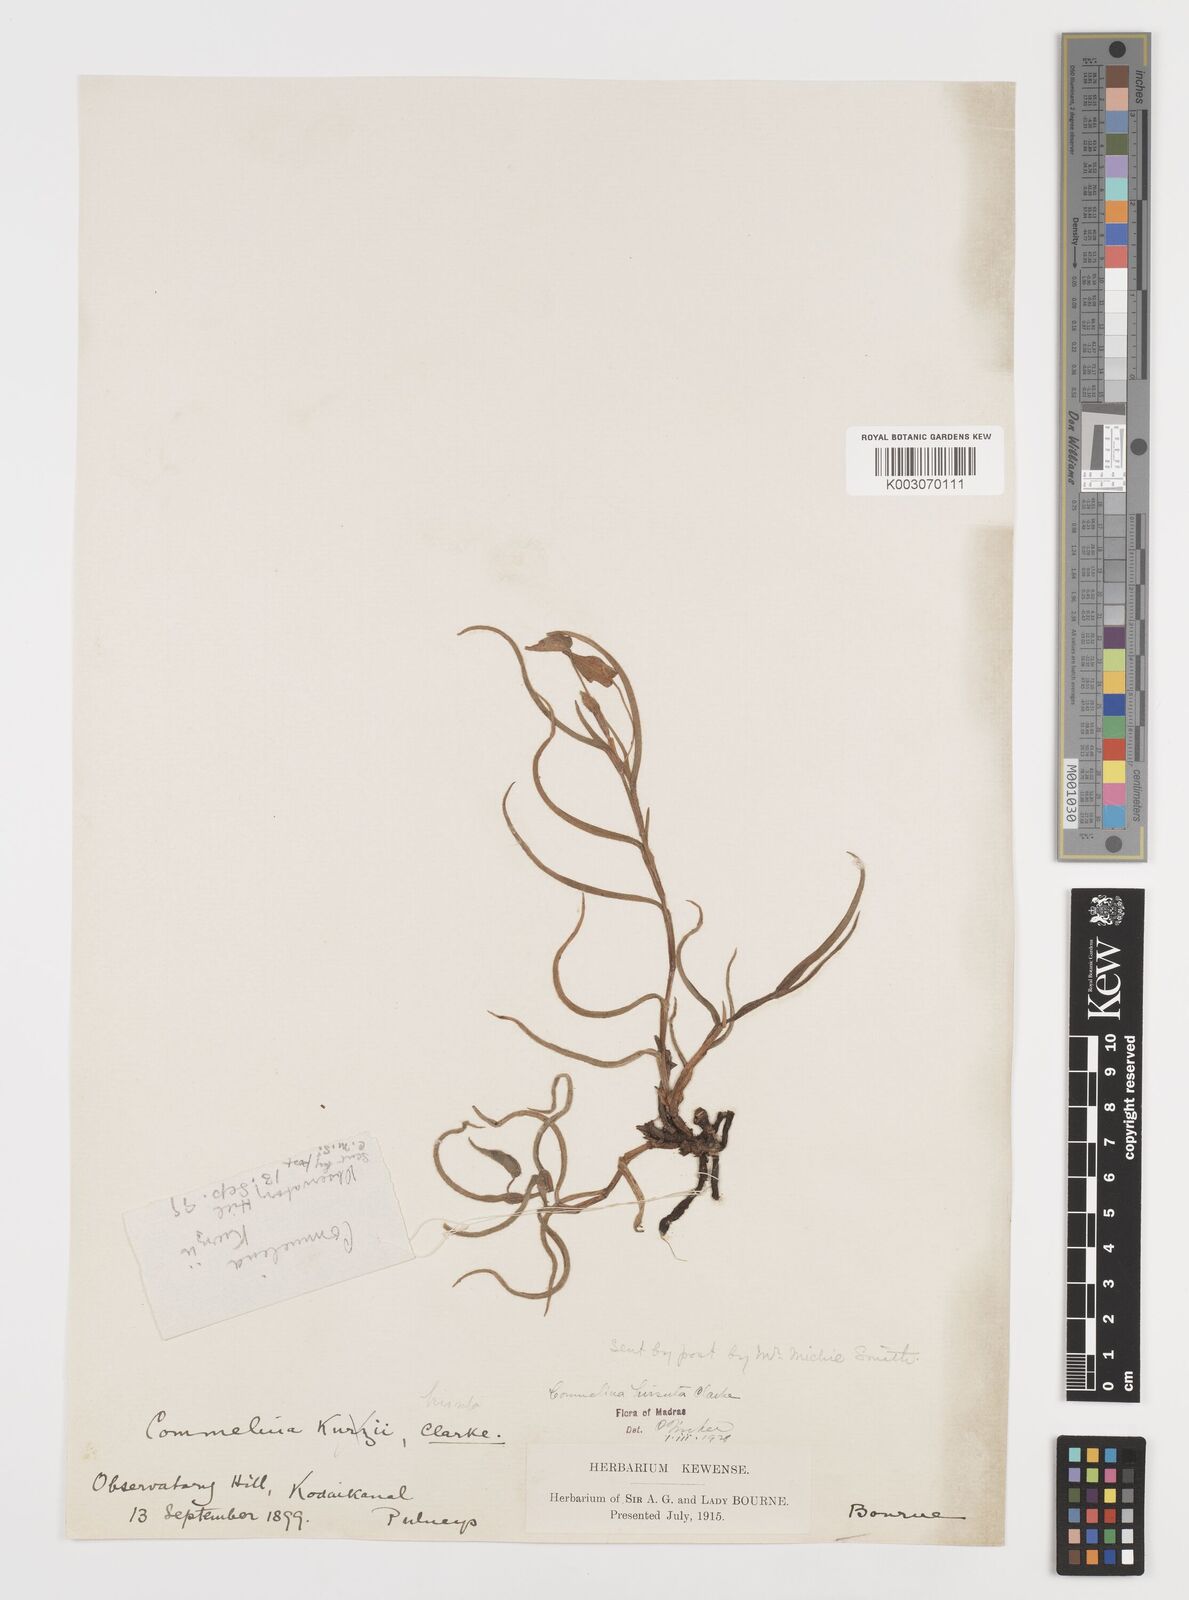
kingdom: Plantae
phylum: Tracheophyta
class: Liliopsida
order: Commelinales
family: Commelinaceae
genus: Commelina
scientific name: Commelina hirsuta
